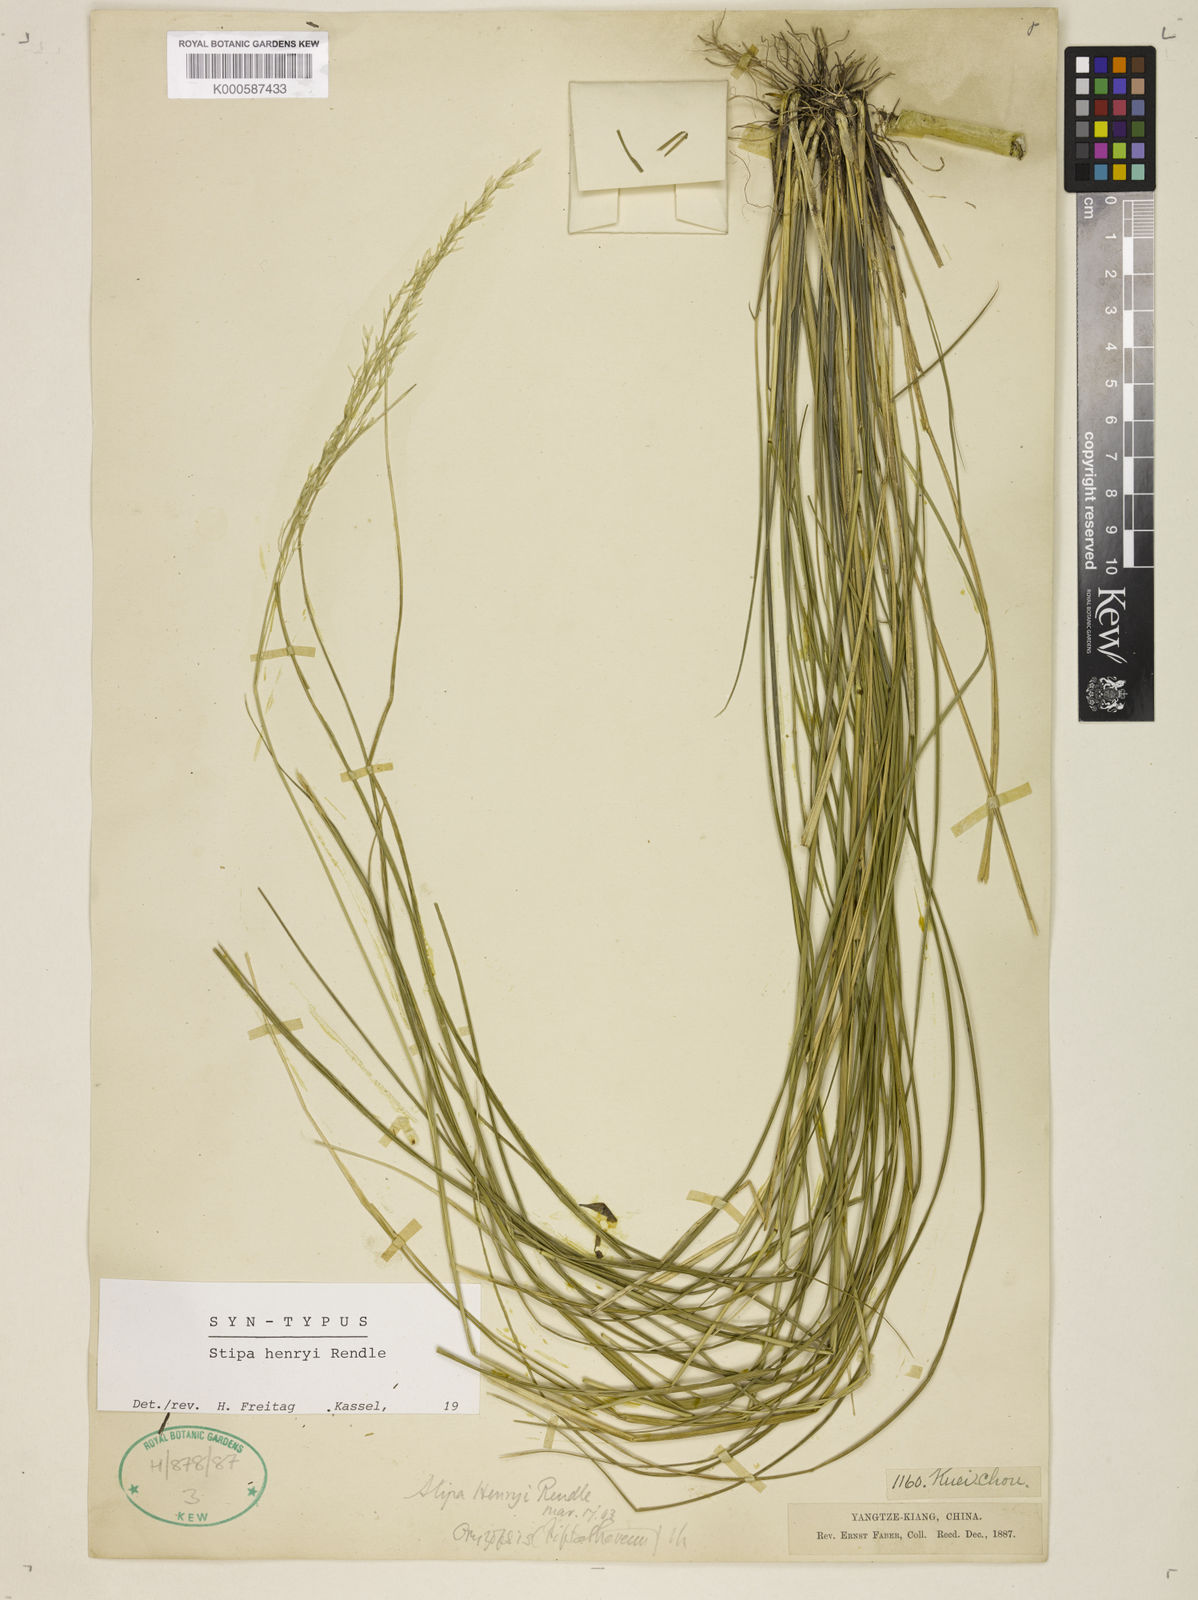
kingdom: Plantae
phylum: Tracheophyta
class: Liliopsida
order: Poales
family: Poaceae
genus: Stipa
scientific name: Stipa henryi
